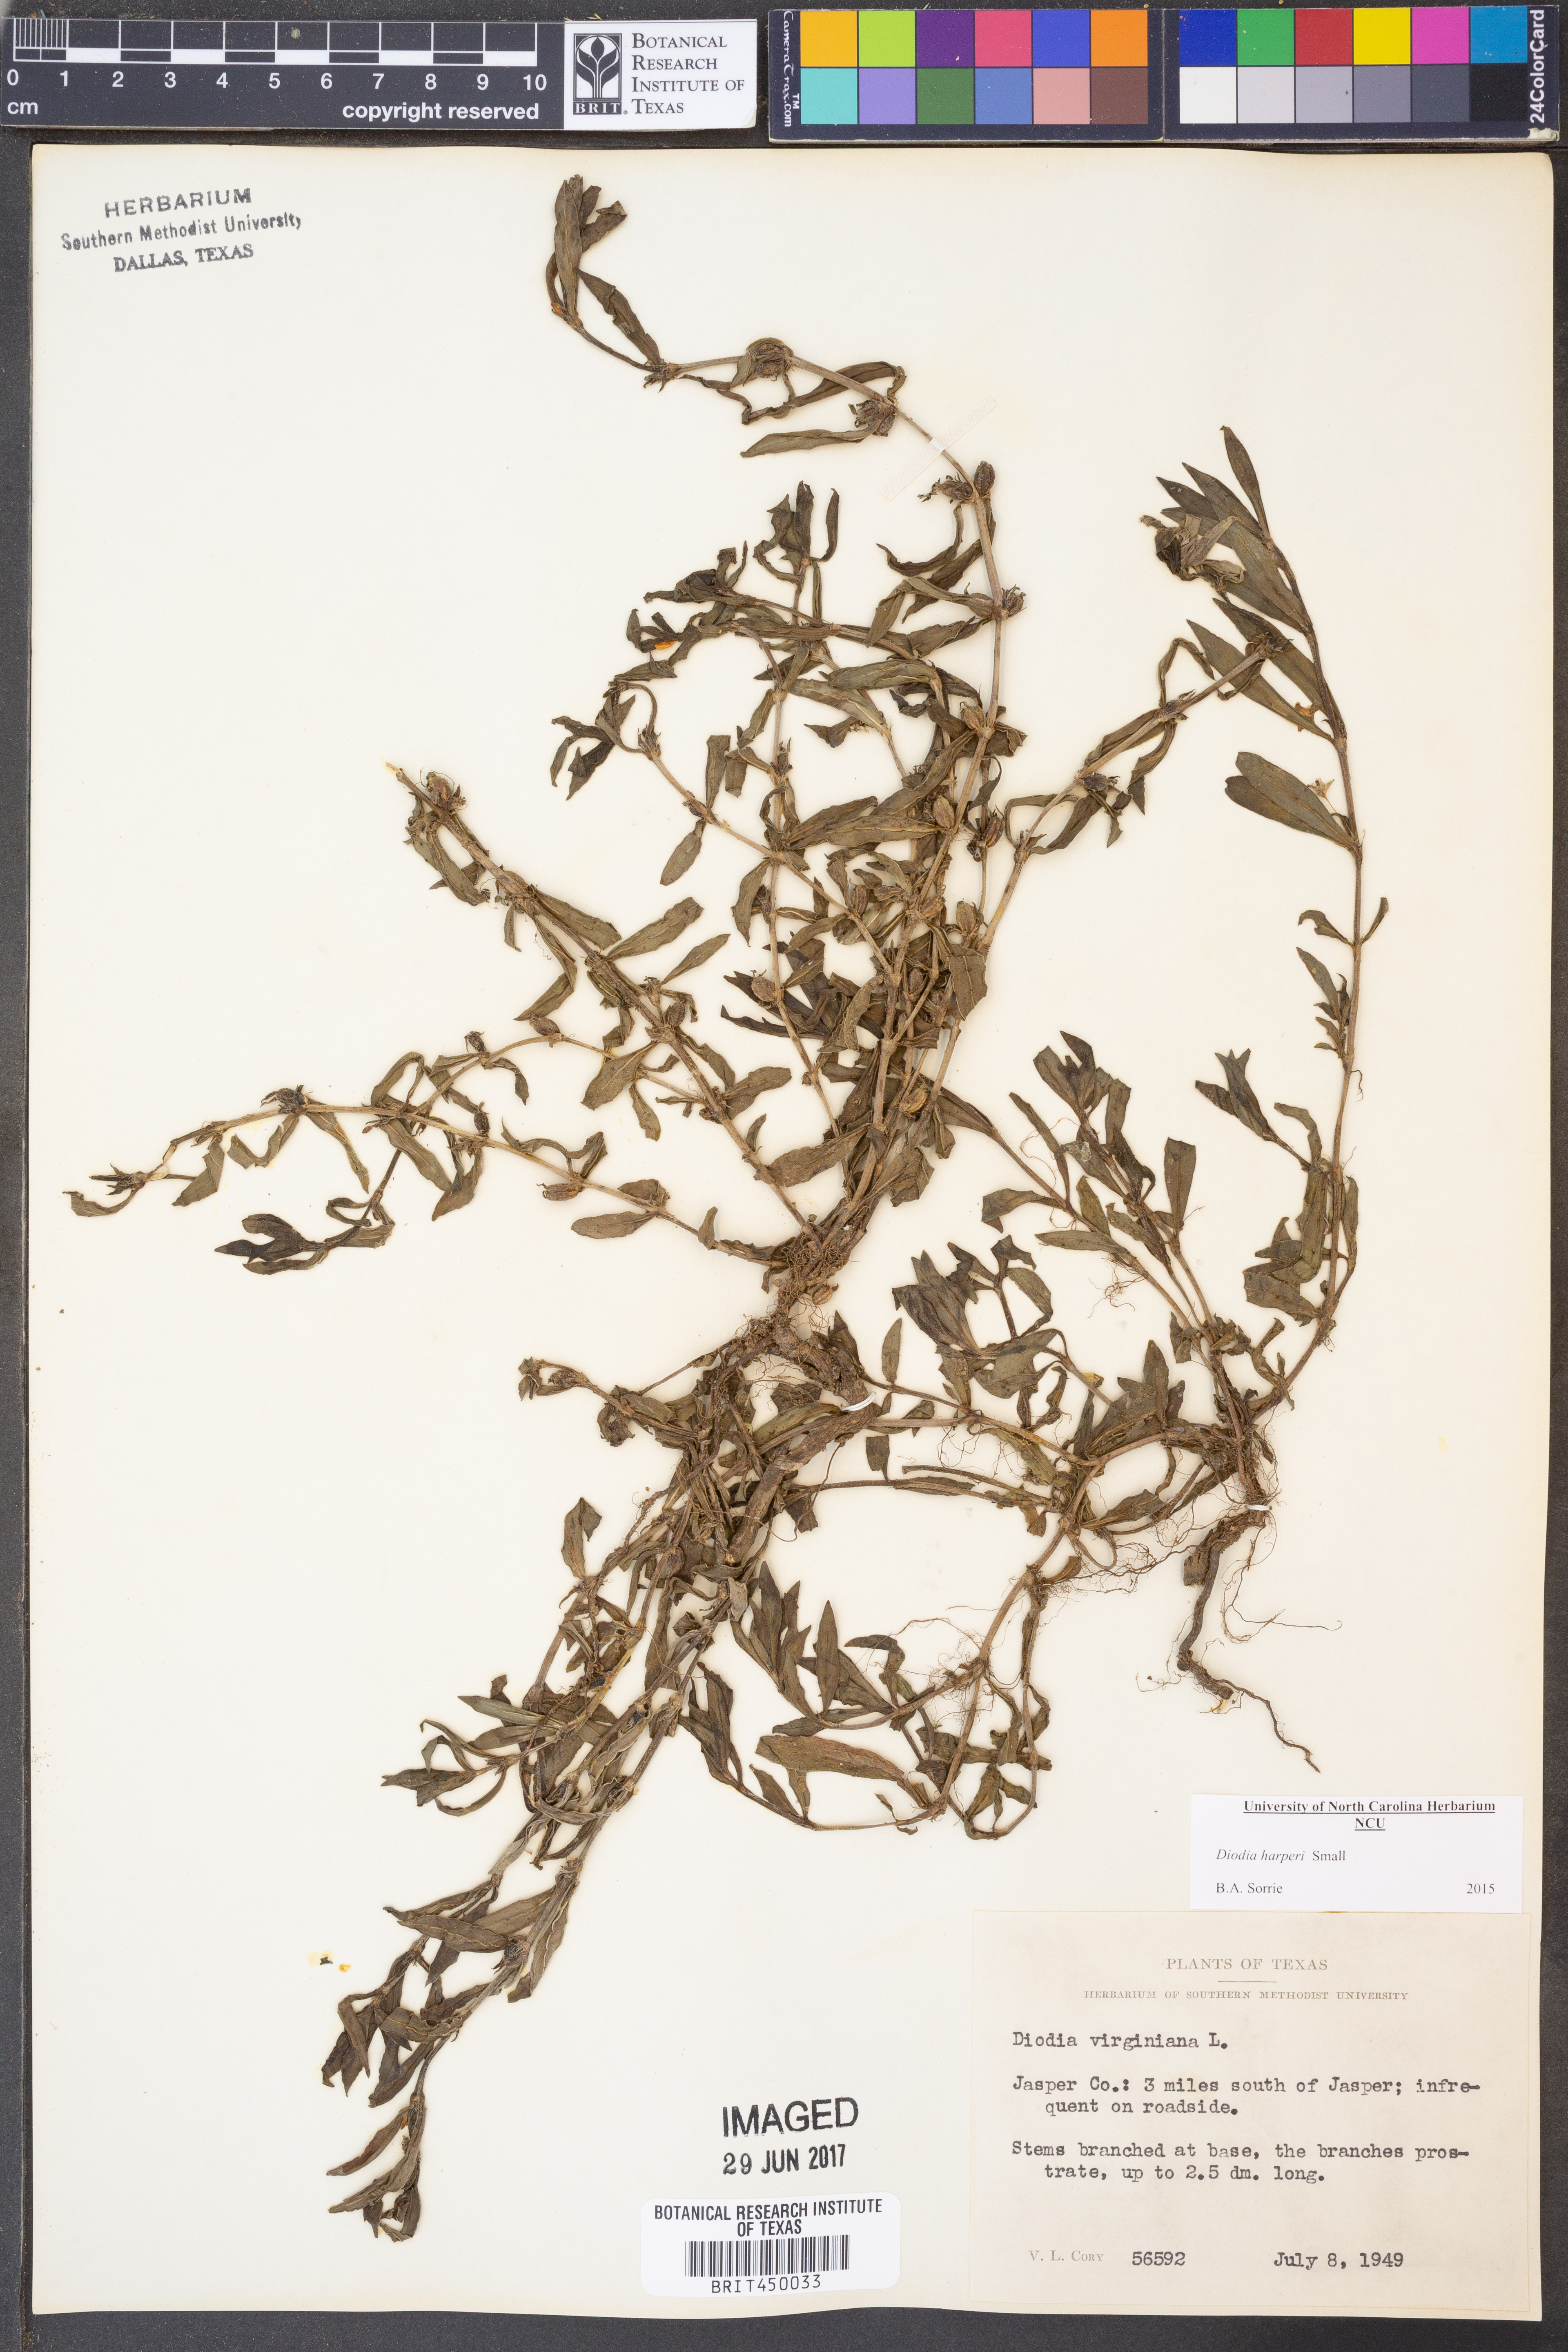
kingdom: Plantae
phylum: Tracheophyta
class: Magnoliopsida
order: Gentianales
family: Rubiaceae
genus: Diodia
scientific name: Diodia virginiana
